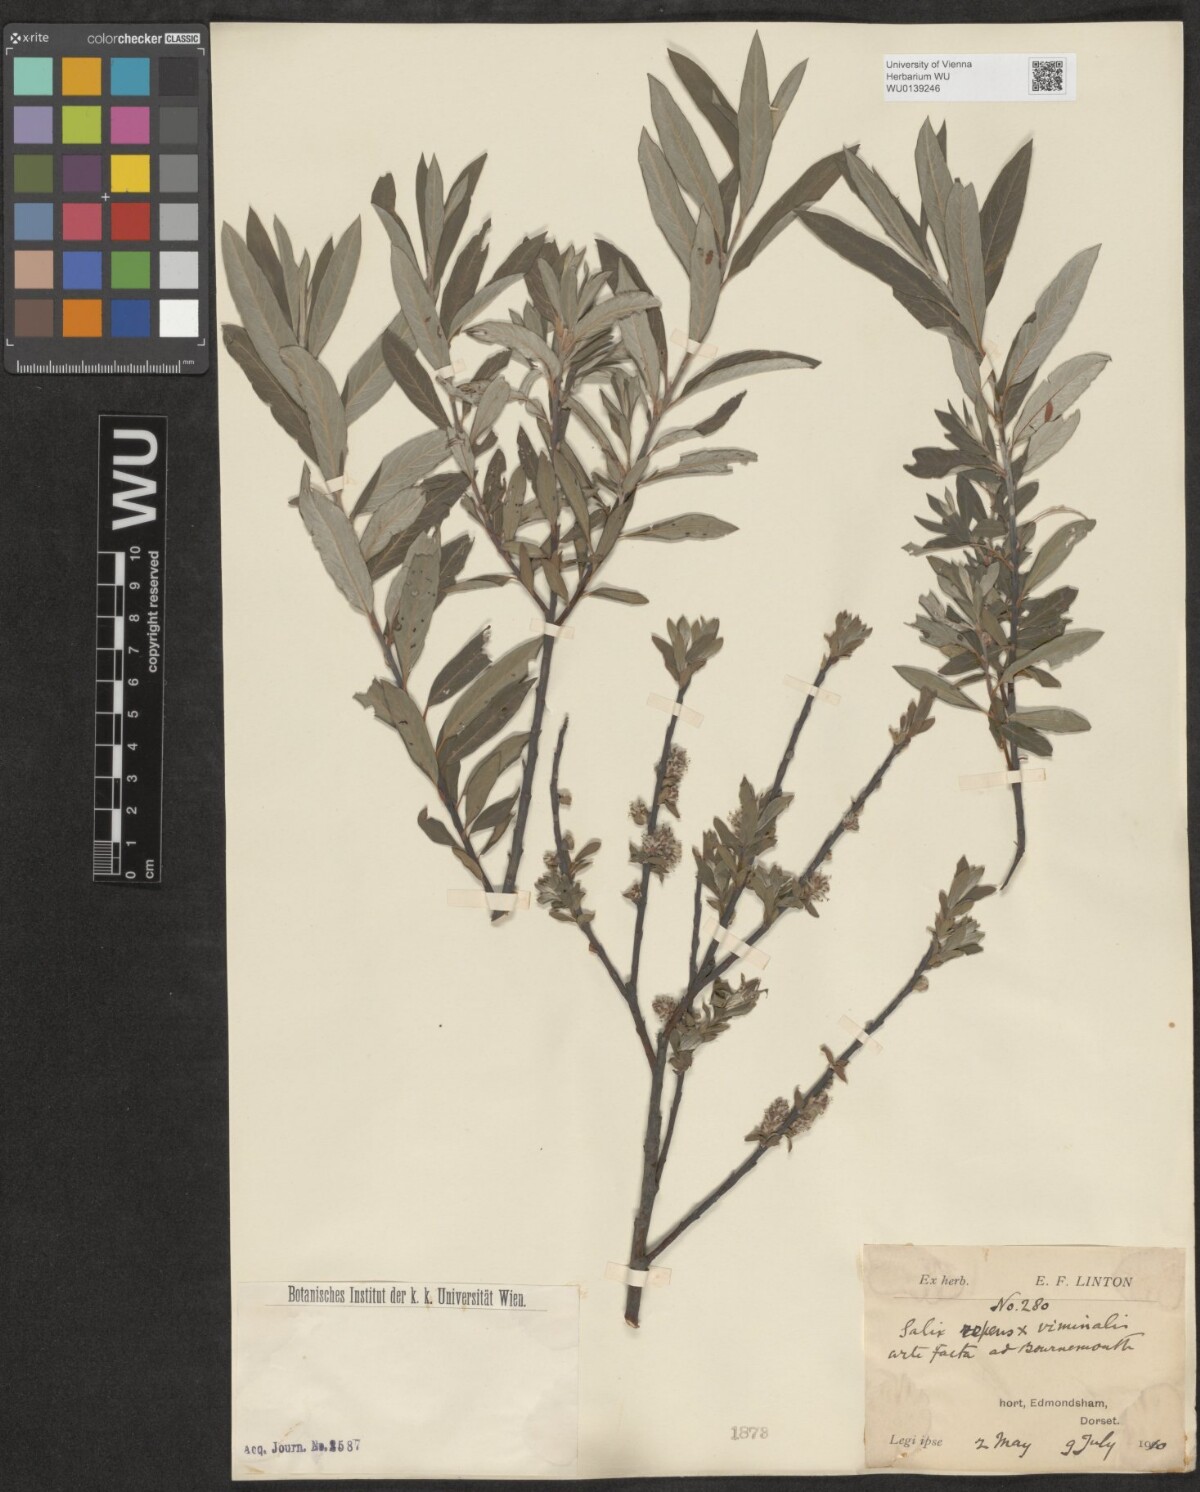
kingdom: Plantae
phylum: Tracheophyta
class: Magnoliopsida
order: Malpighiales
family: Salicaceae
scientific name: Salicaceae
